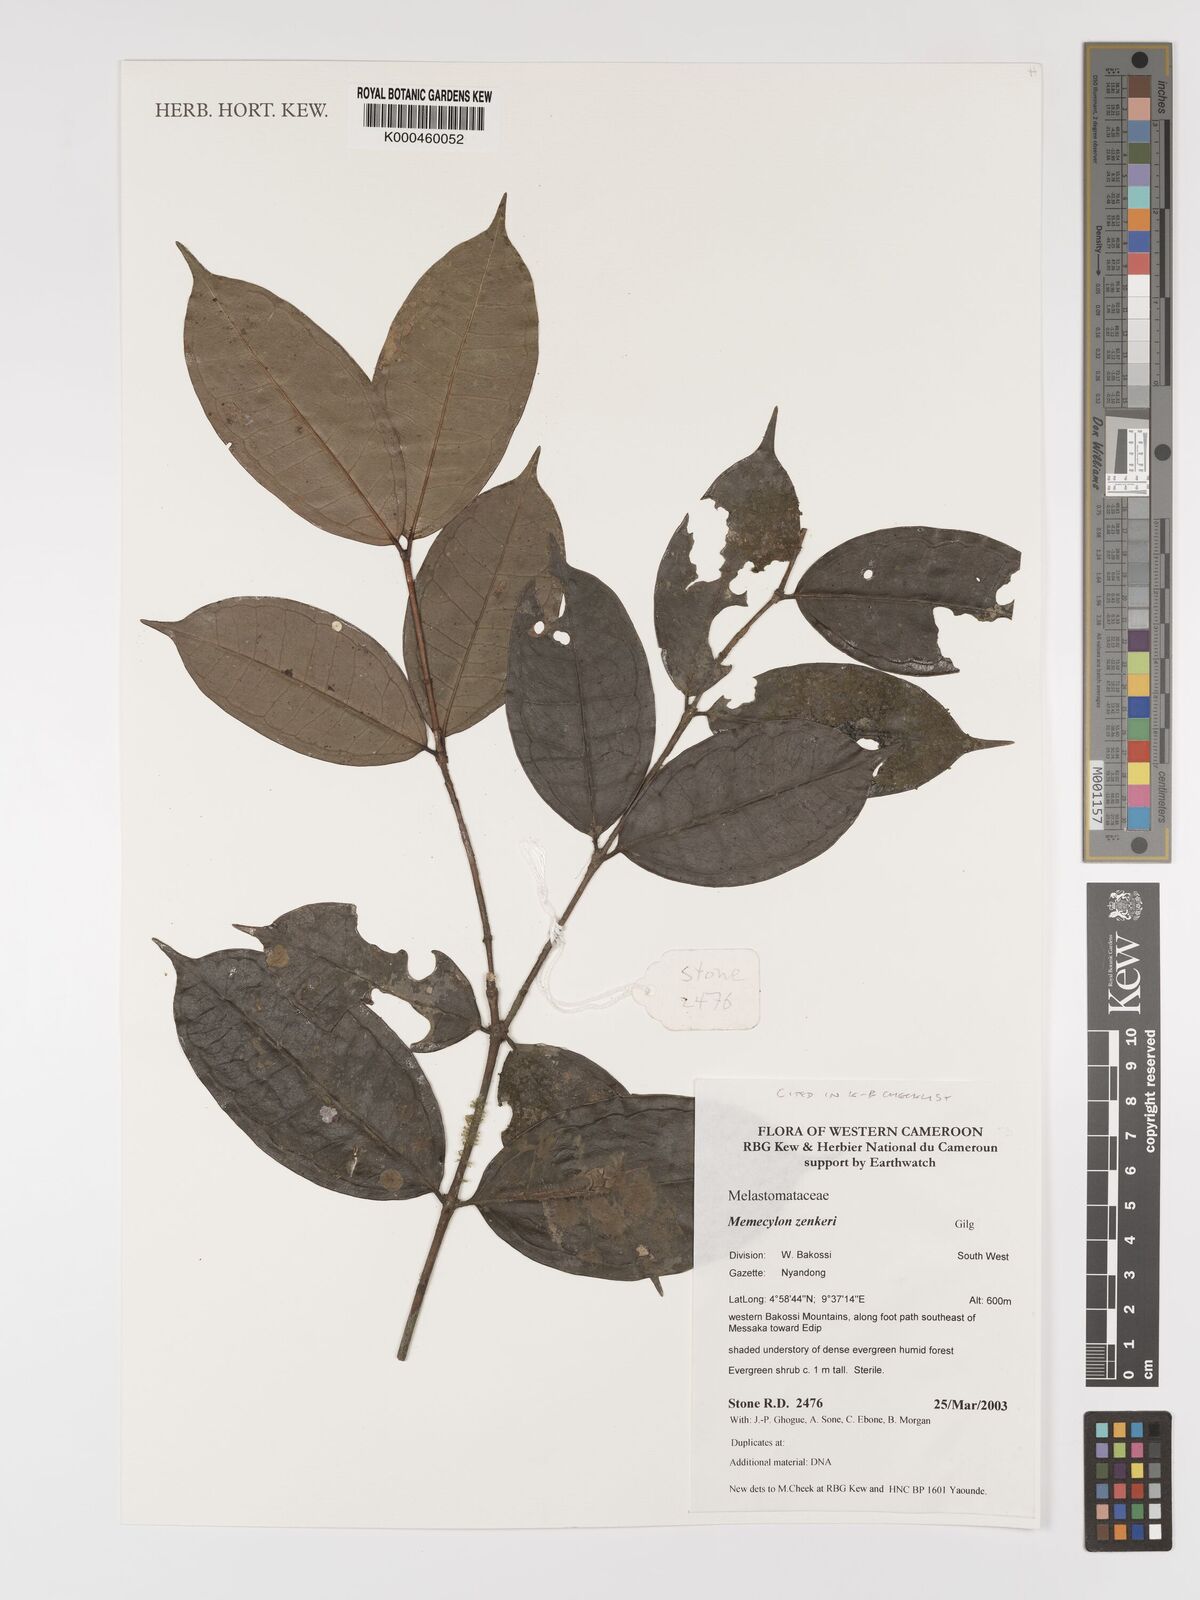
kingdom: Plantae
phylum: Tracheophyta
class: Magnoliopsida
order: Myrtales
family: Melastomataceae
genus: Memecylon
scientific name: Memecylon zenkeri
